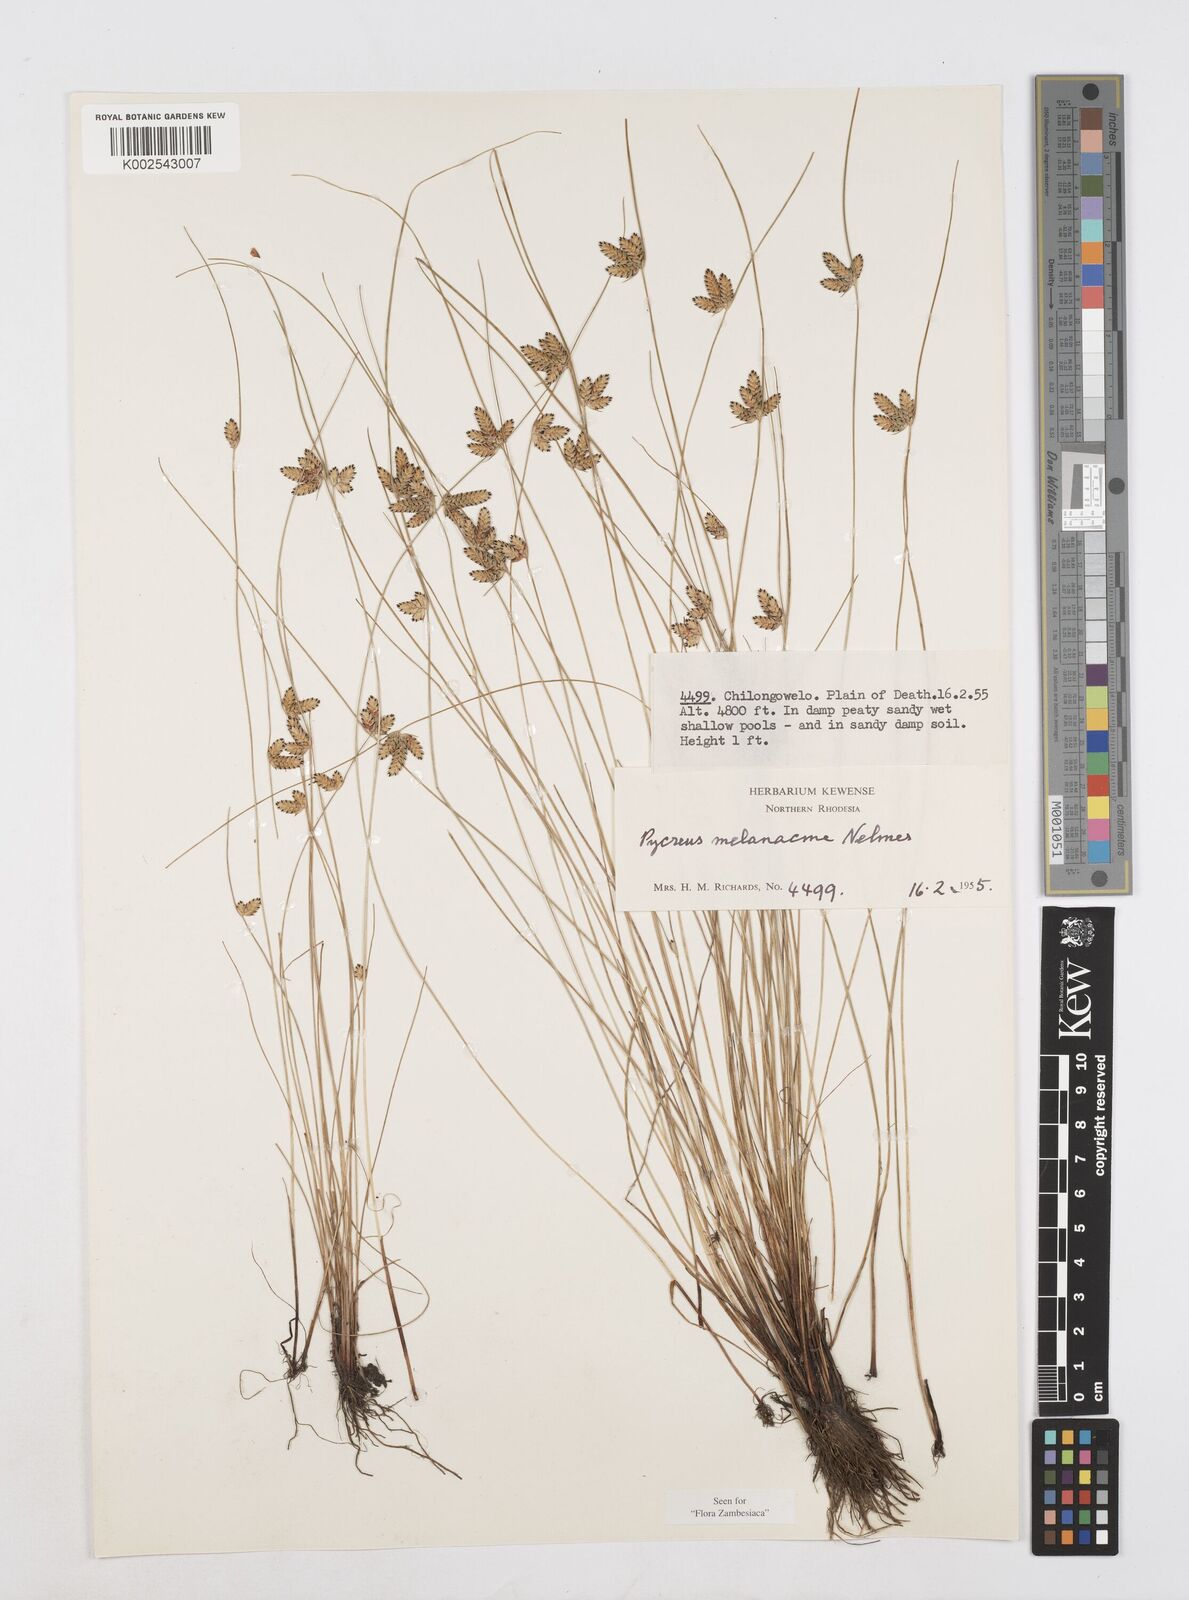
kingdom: Plantae
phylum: Tracheophyta
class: Liliopsida
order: Poales
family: Cyperaceae
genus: Cyperus
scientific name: Cyperus melanacme
